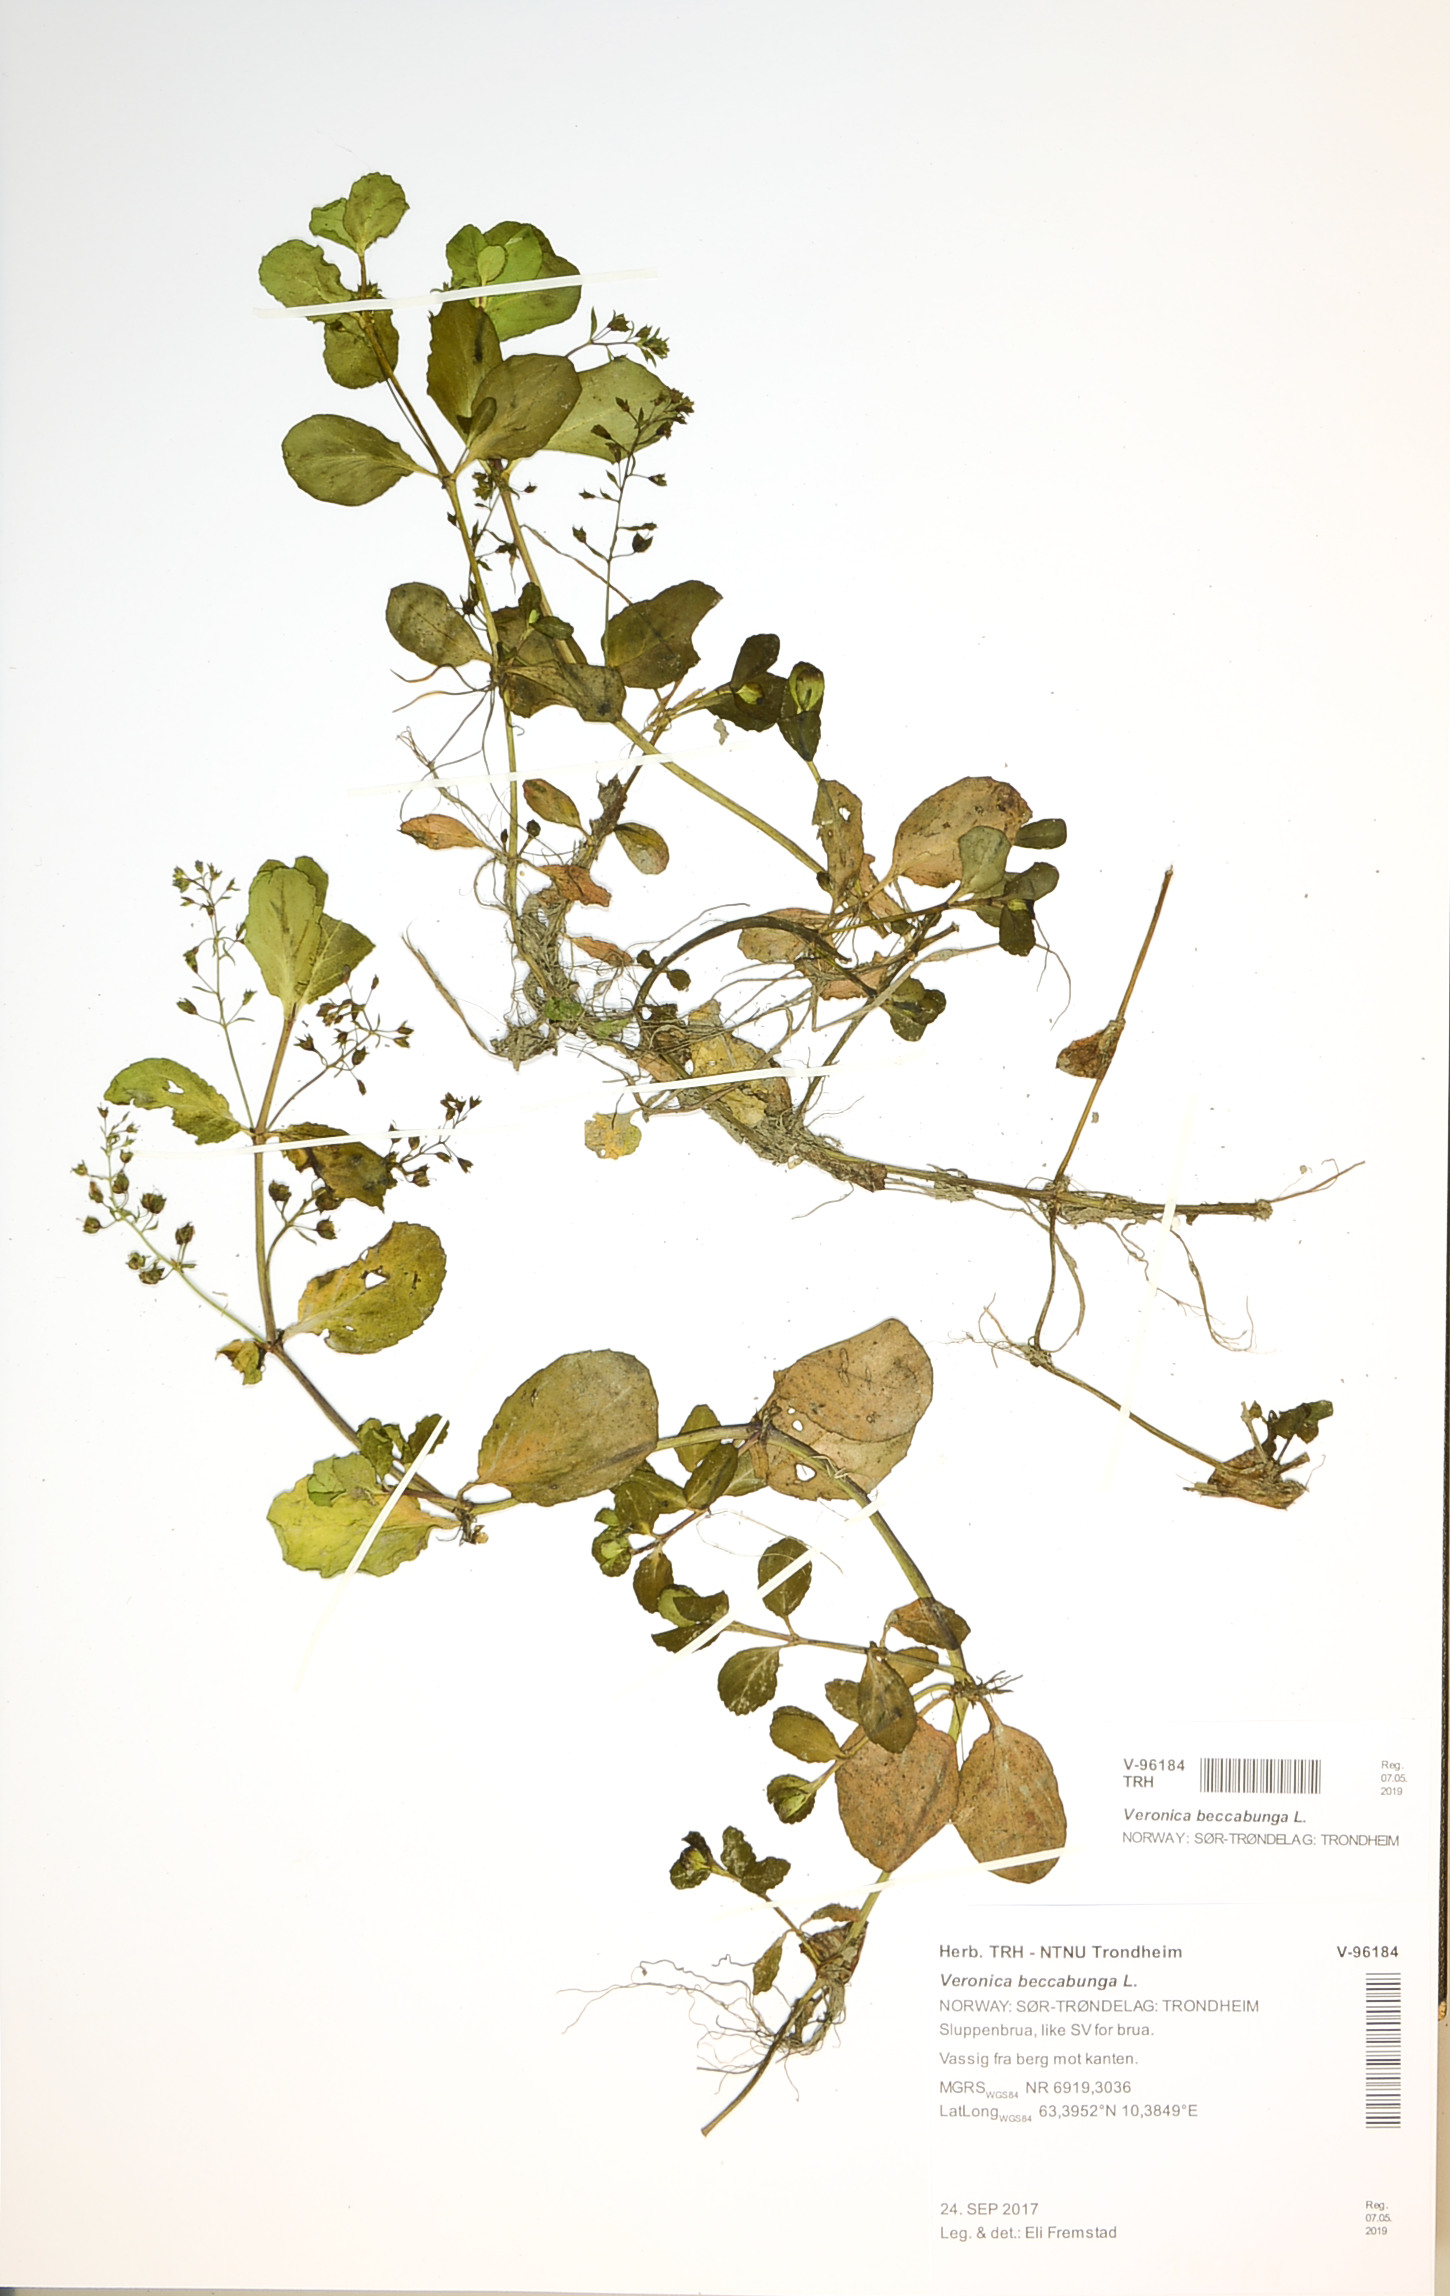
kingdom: Plantae
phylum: Tracheophyta
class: Magnoliopsida
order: Lamiales
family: Plantaginaceae
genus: Veronica
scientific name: Veronica beccabunga
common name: Brooklime
